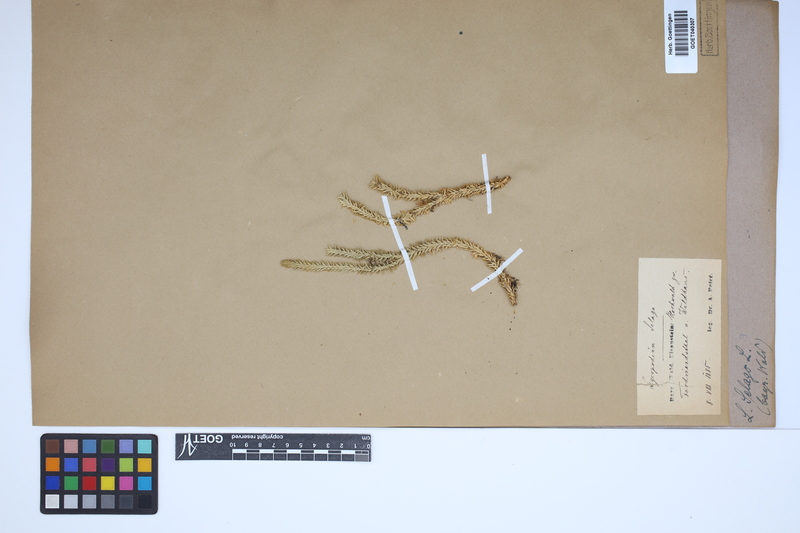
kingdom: Plantae
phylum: Tracheophyta
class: Lycopodiopsida
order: Lycopodiales
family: Lycopodiaceae
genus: Huperzia
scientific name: Huperzia selago
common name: Northern firmoss
